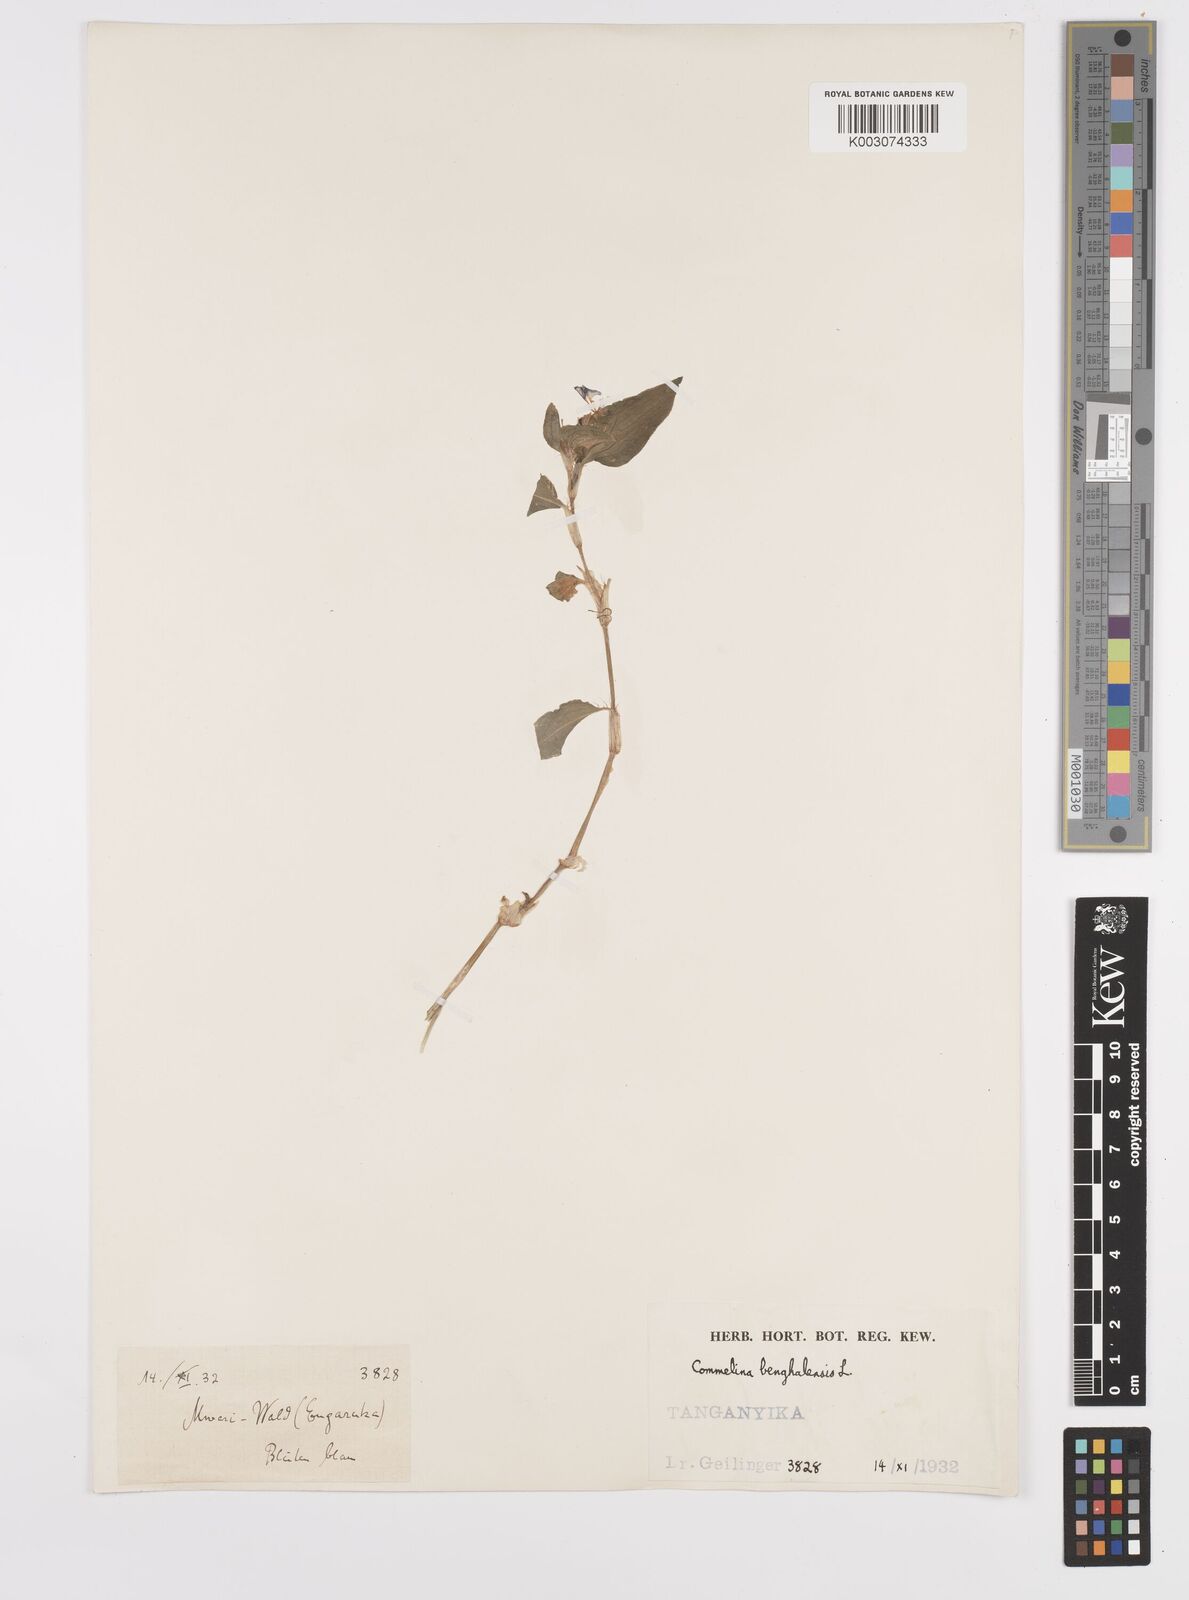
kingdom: Plantae
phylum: Tracheophyta
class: Liliopsida
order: Commelinales
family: Commelinaceae
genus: Commelina
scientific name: Commelina benghalensis
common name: Jio
